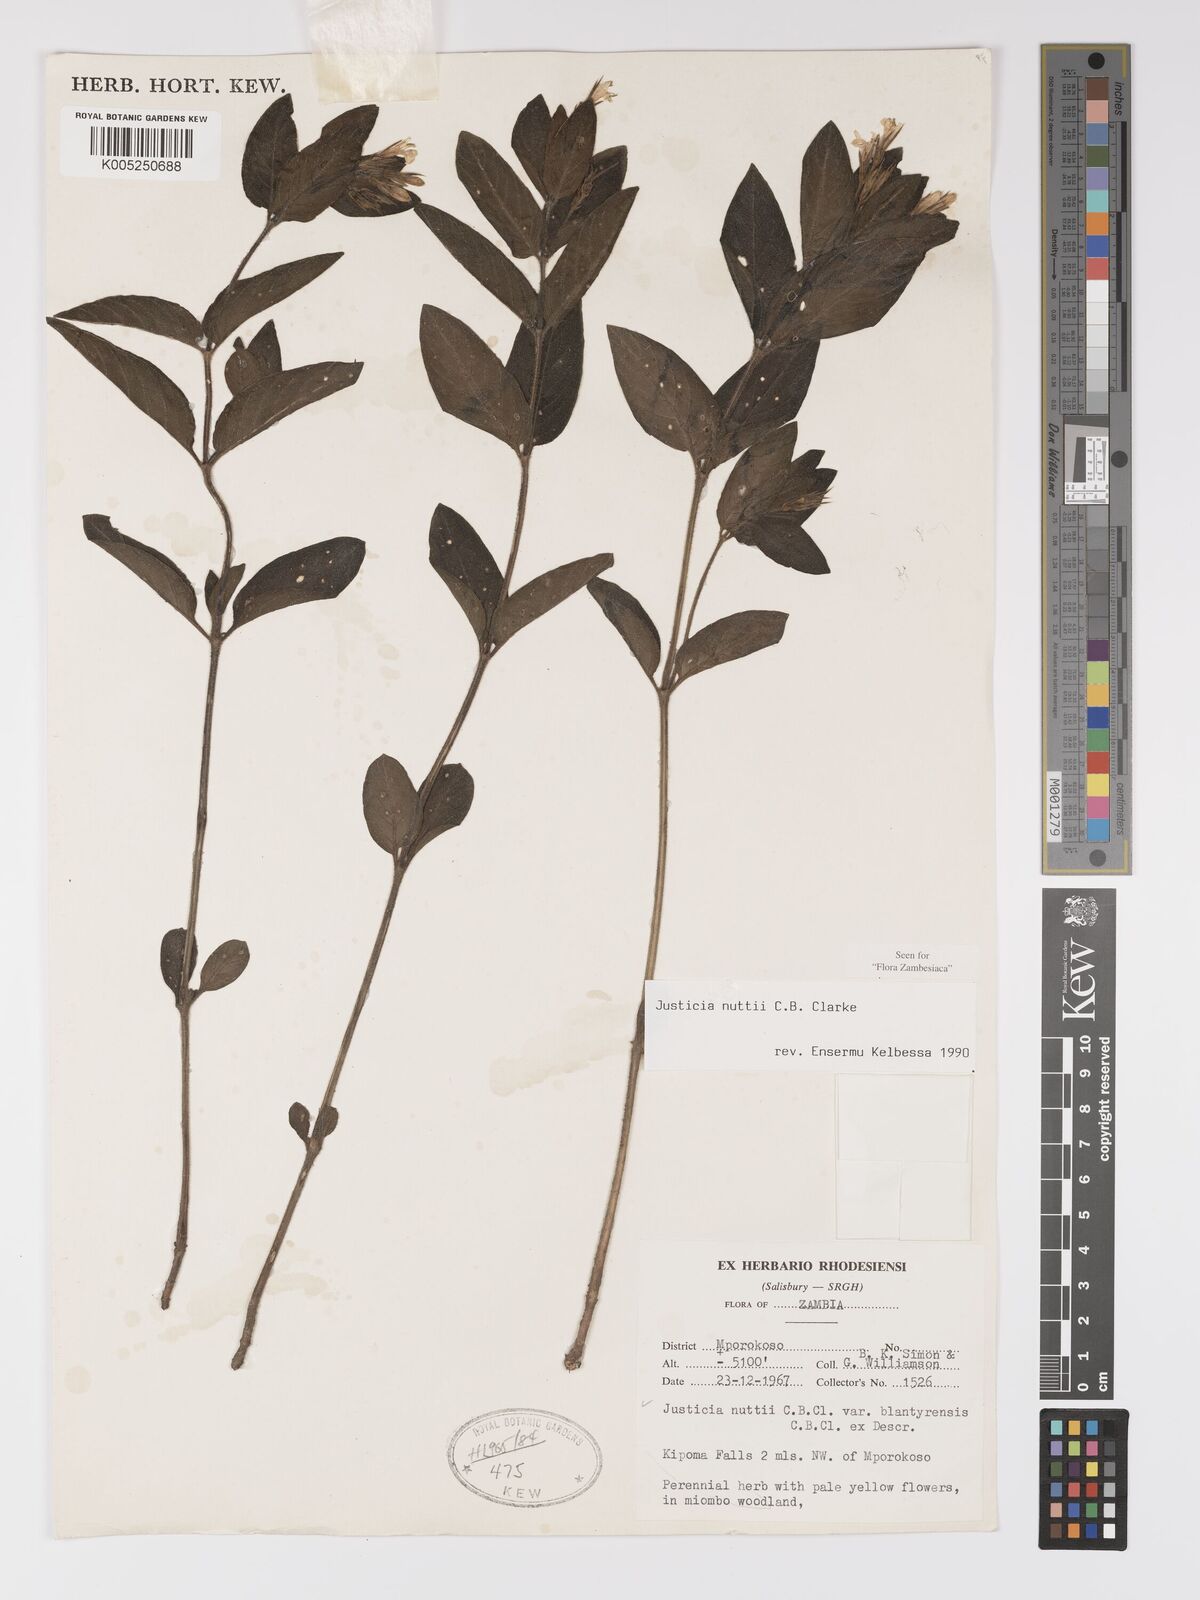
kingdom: Plantae
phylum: Tracheophyta
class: Magnoliopsida
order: Lamiales
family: Acanthaceae
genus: Justicia
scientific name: Justicia nuttii
